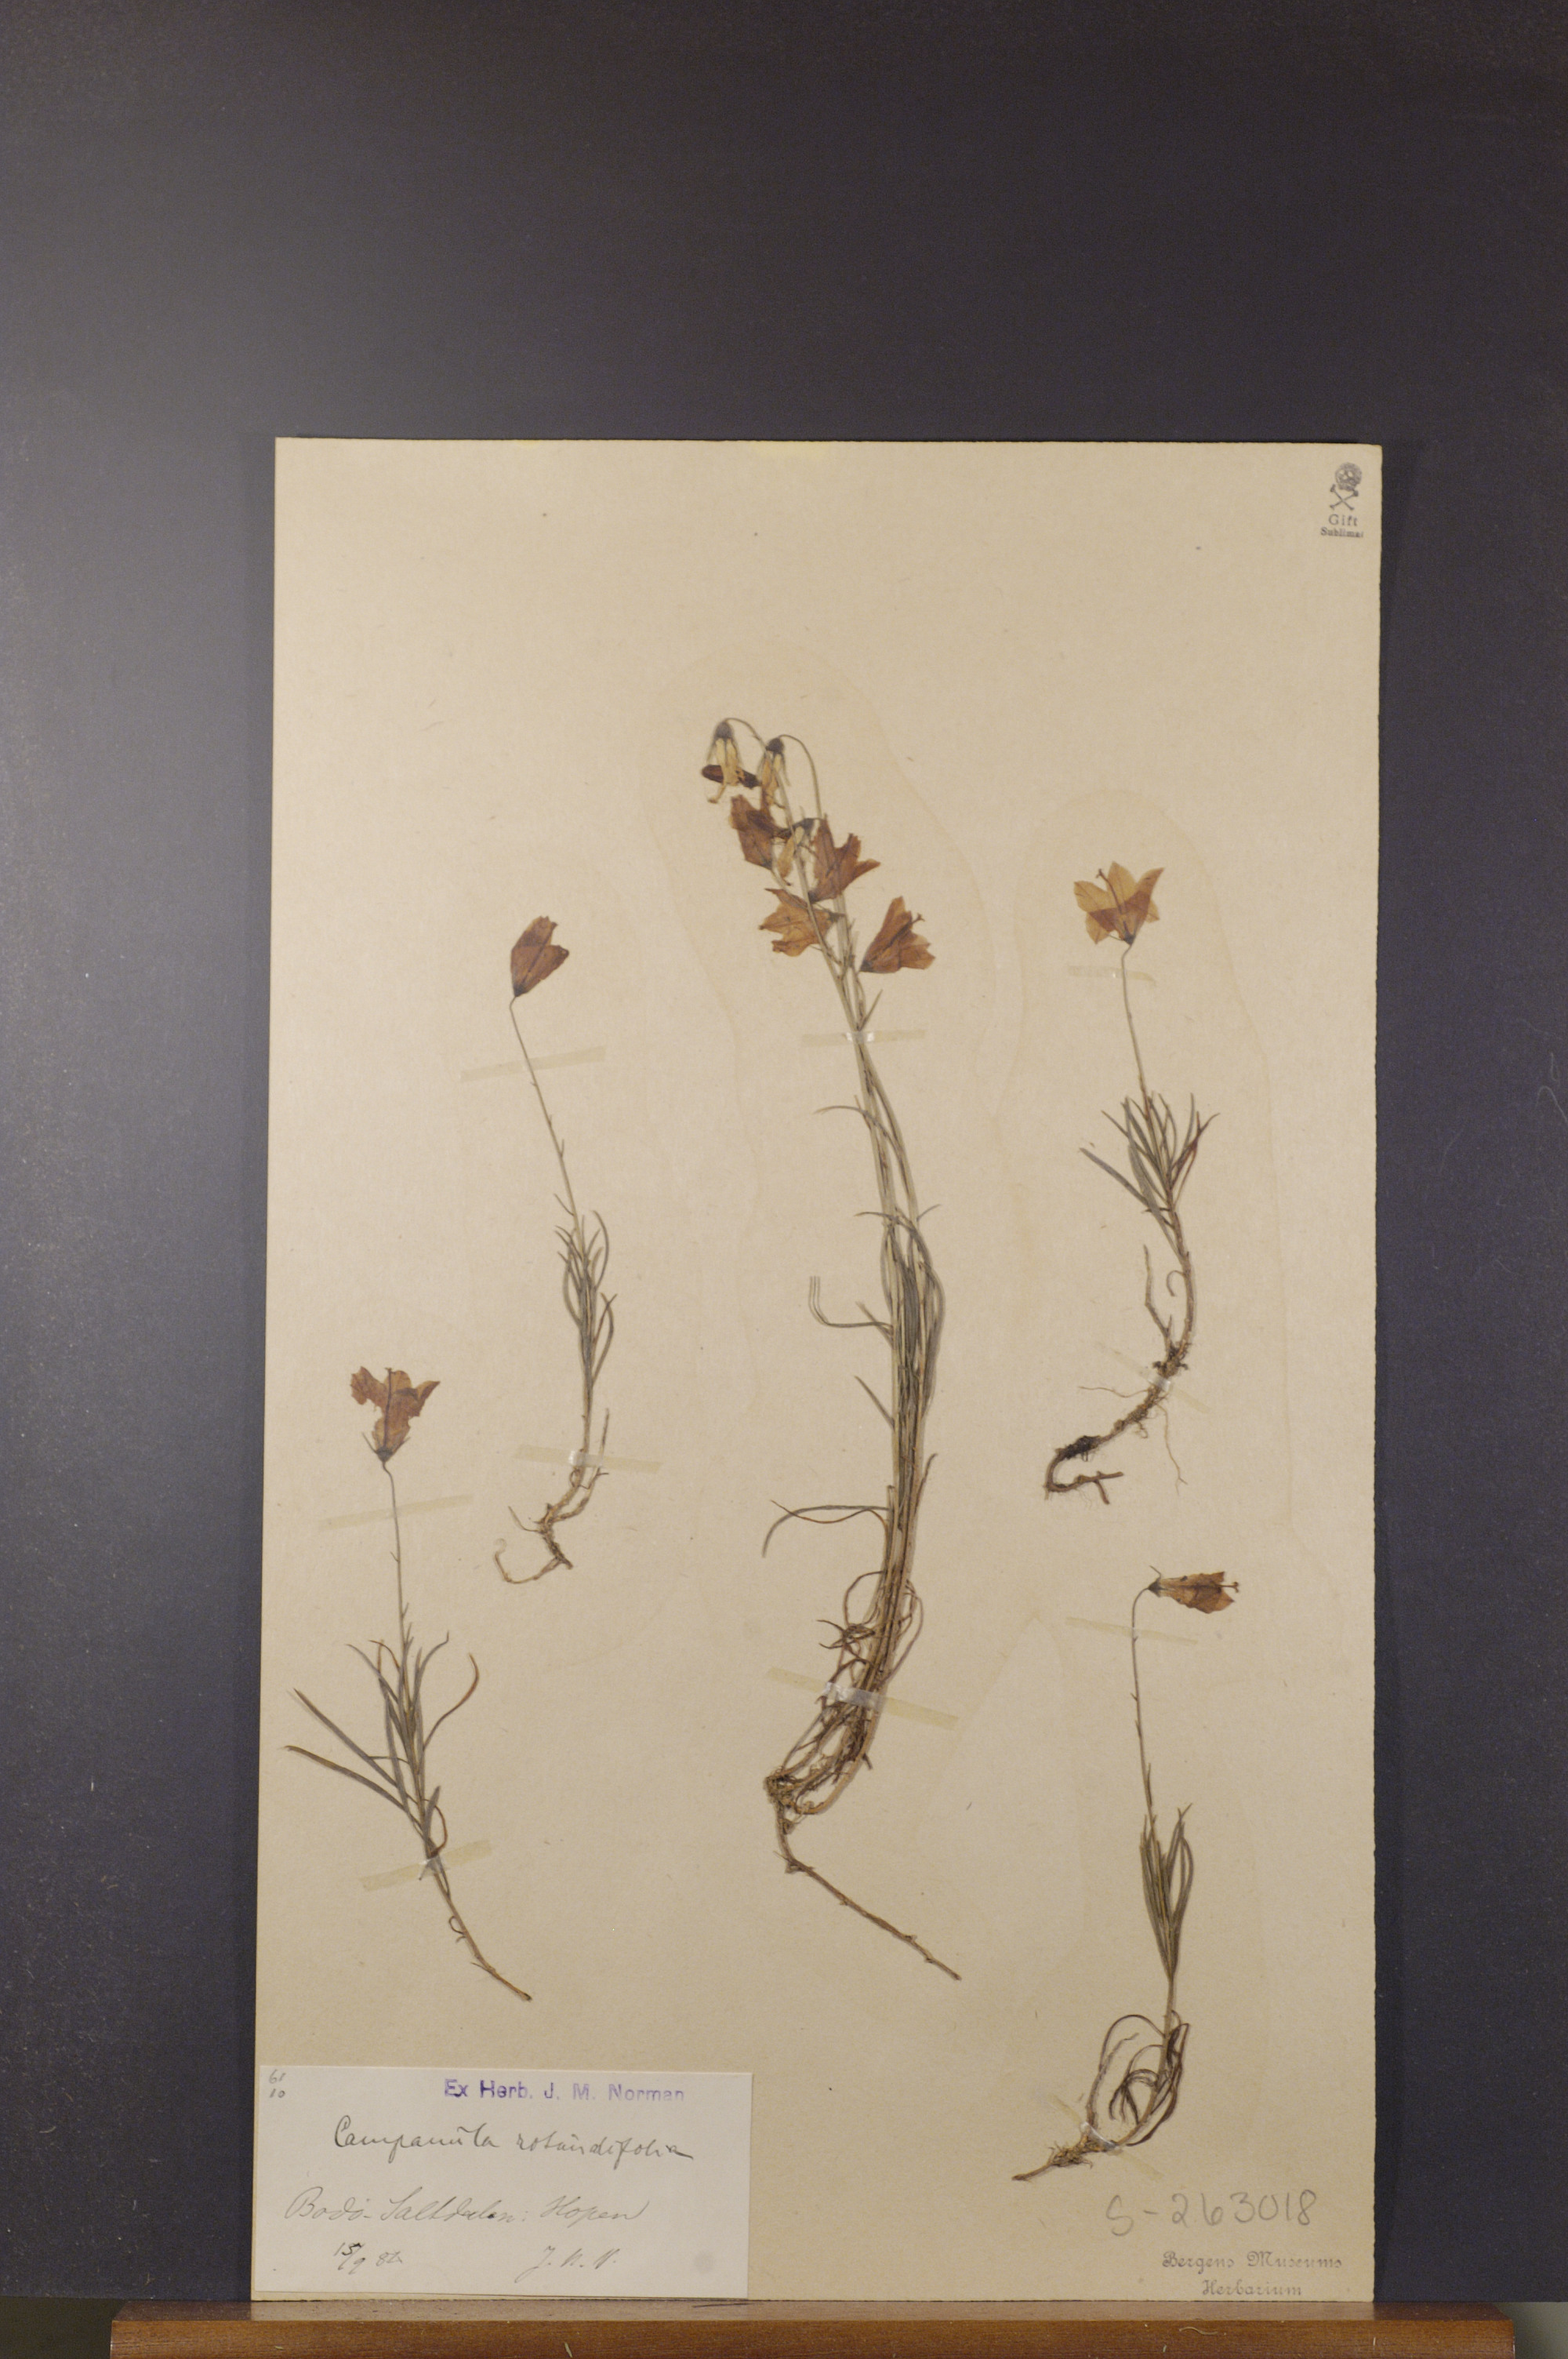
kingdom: Plantae
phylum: Tracheophyta
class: Magnoliopsida
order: Asterales
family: Campanulaceae
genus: Campanula
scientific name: Campanula rotundifolia
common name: Harebell
